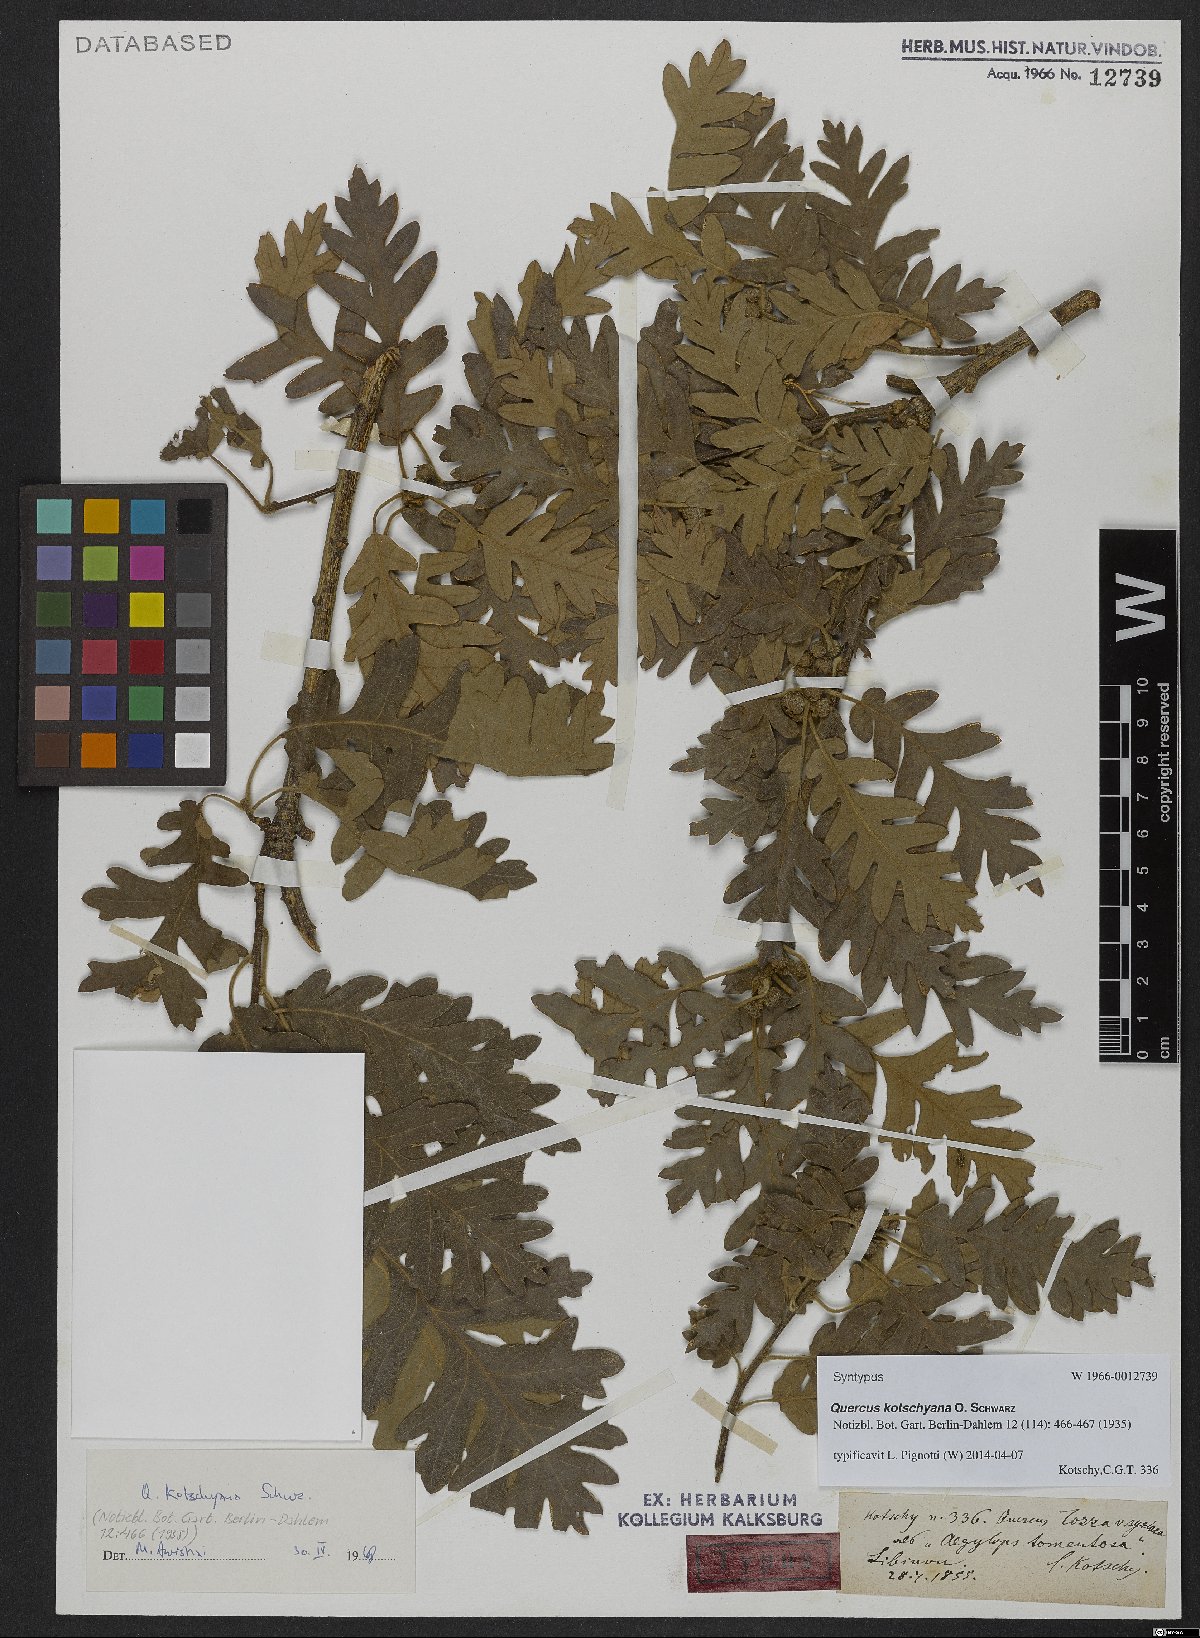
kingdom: Plantae
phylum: Tracheophyta
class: Magnoliopsida
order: Fagales
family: Fagaceae
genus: Quercus
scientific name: Quercus kotschyana
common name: Kotschy oak
